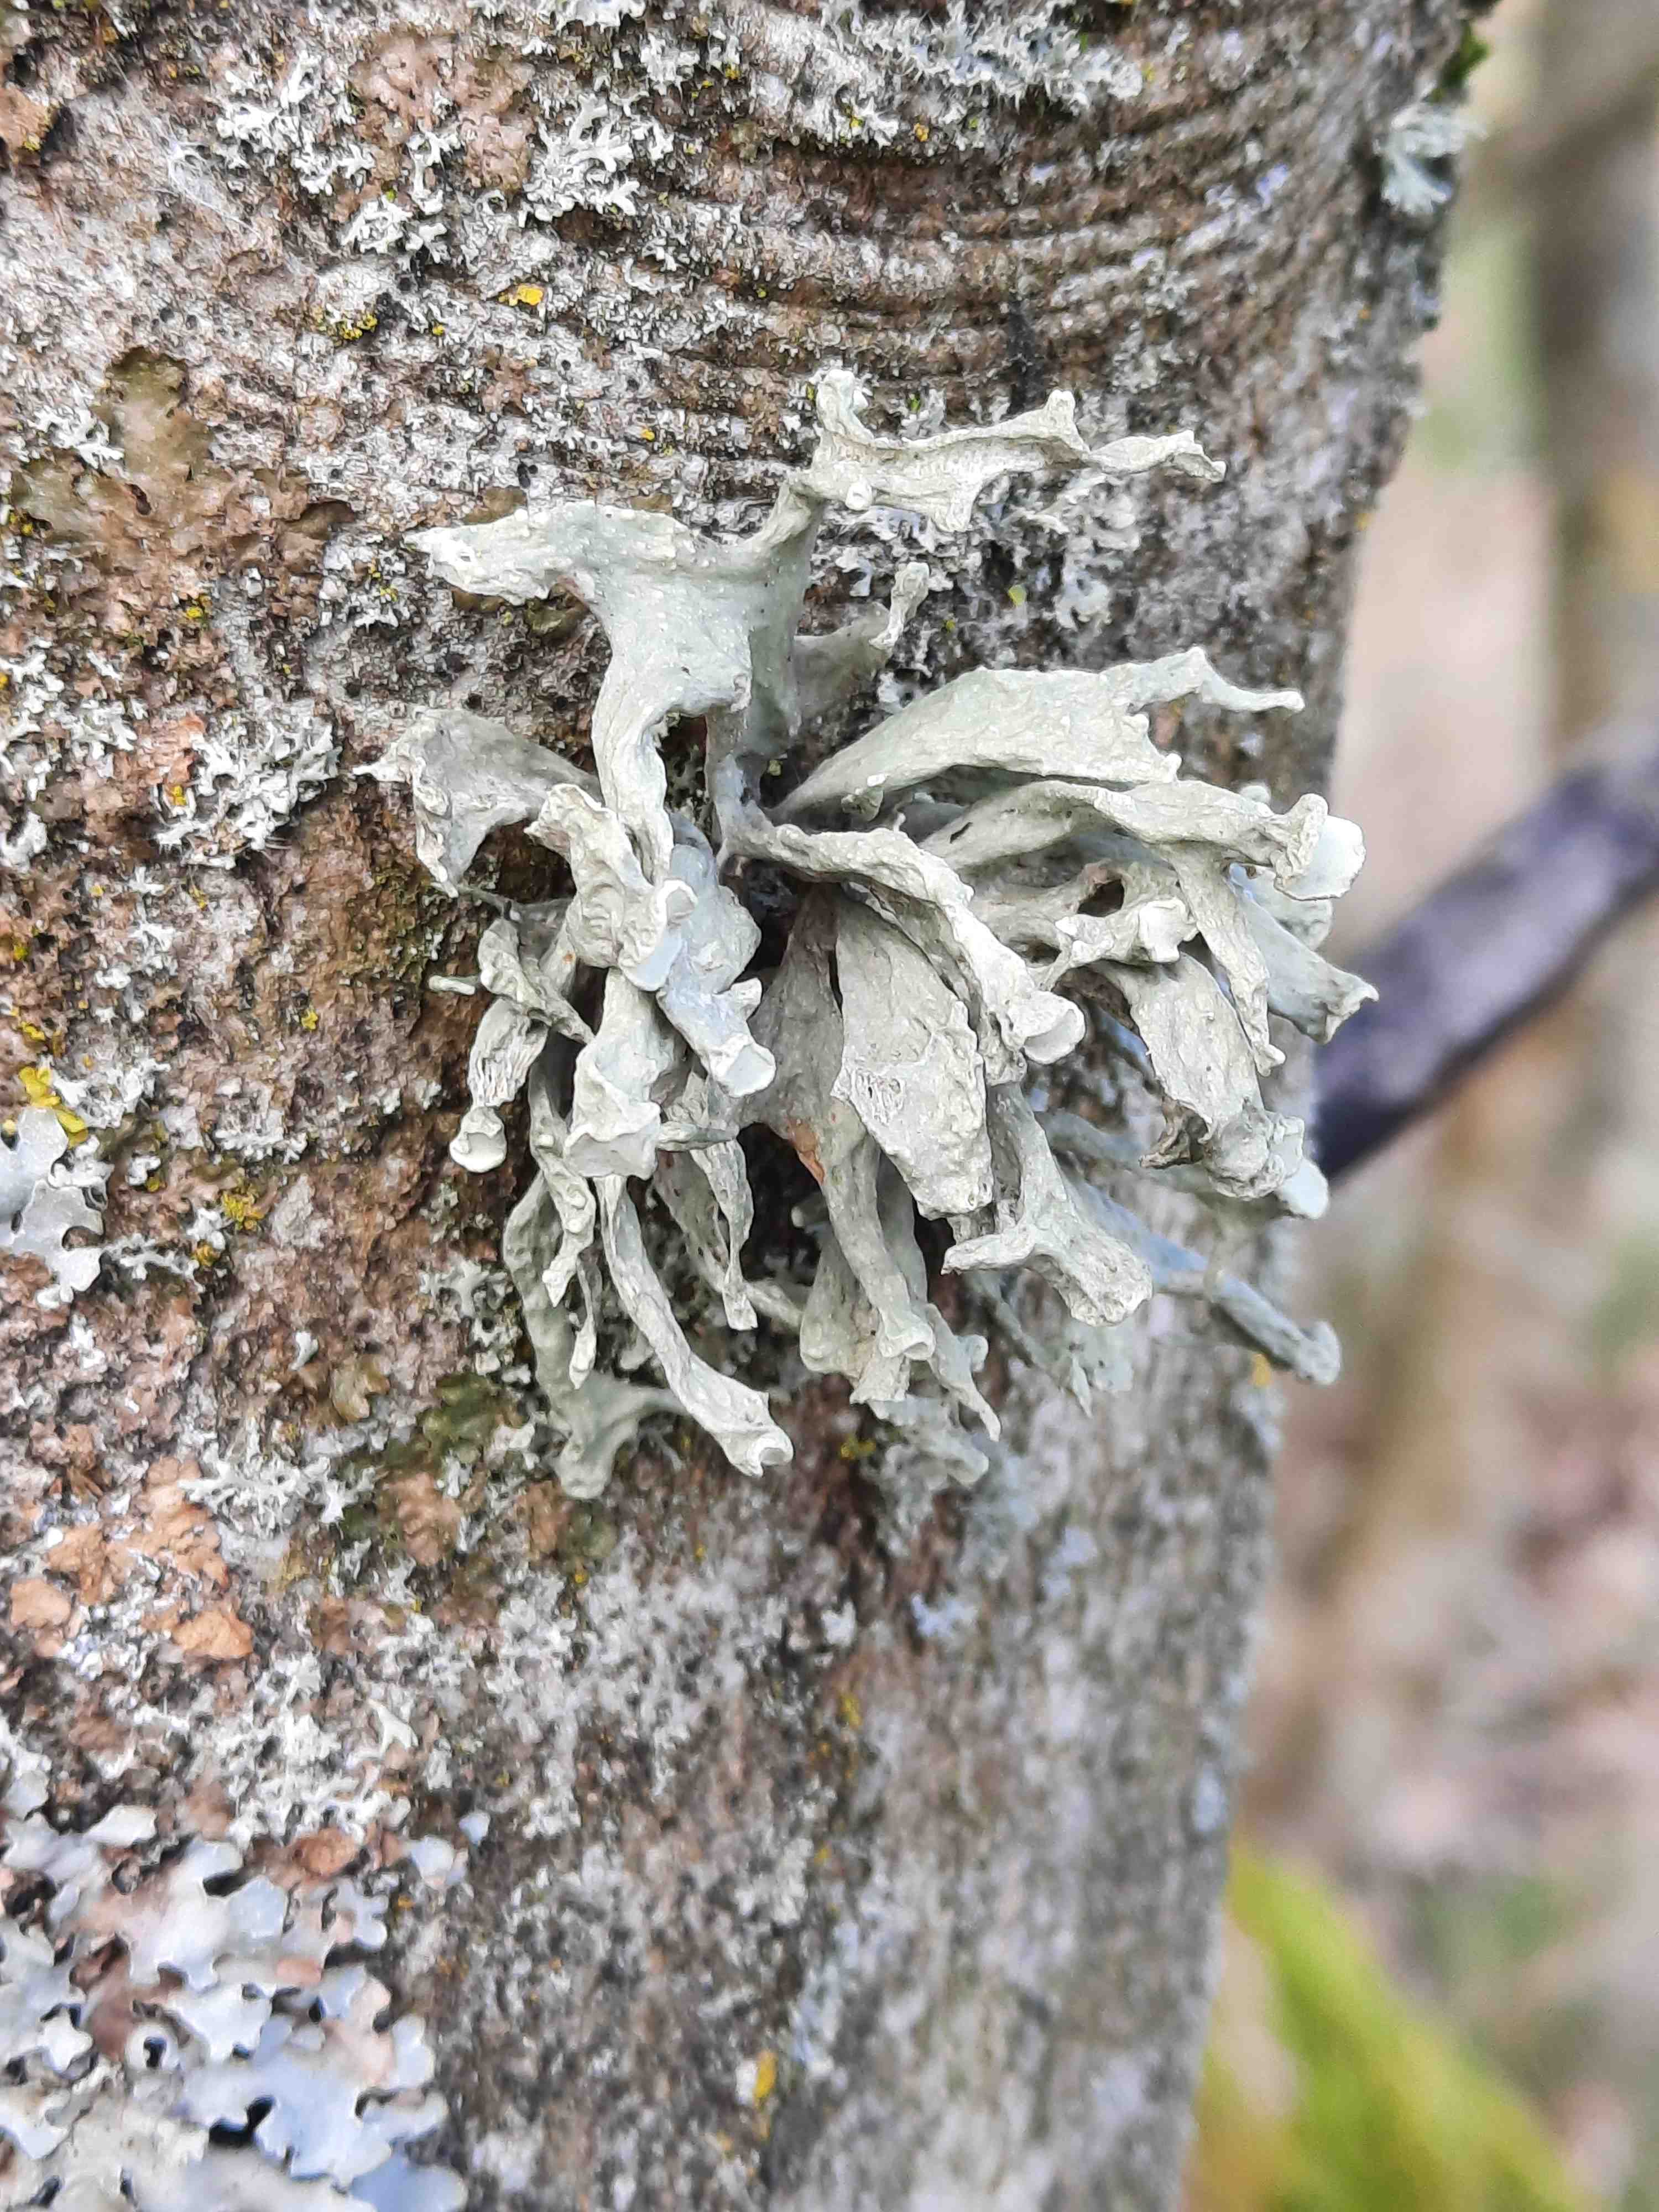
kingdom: Fungi
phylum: Ascomycota
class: Lecanoromycetes
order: Lecanorales
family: Ramalinaceae
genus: Ramalina
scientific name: Ramalina fastigiata
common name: tue-grenlav
